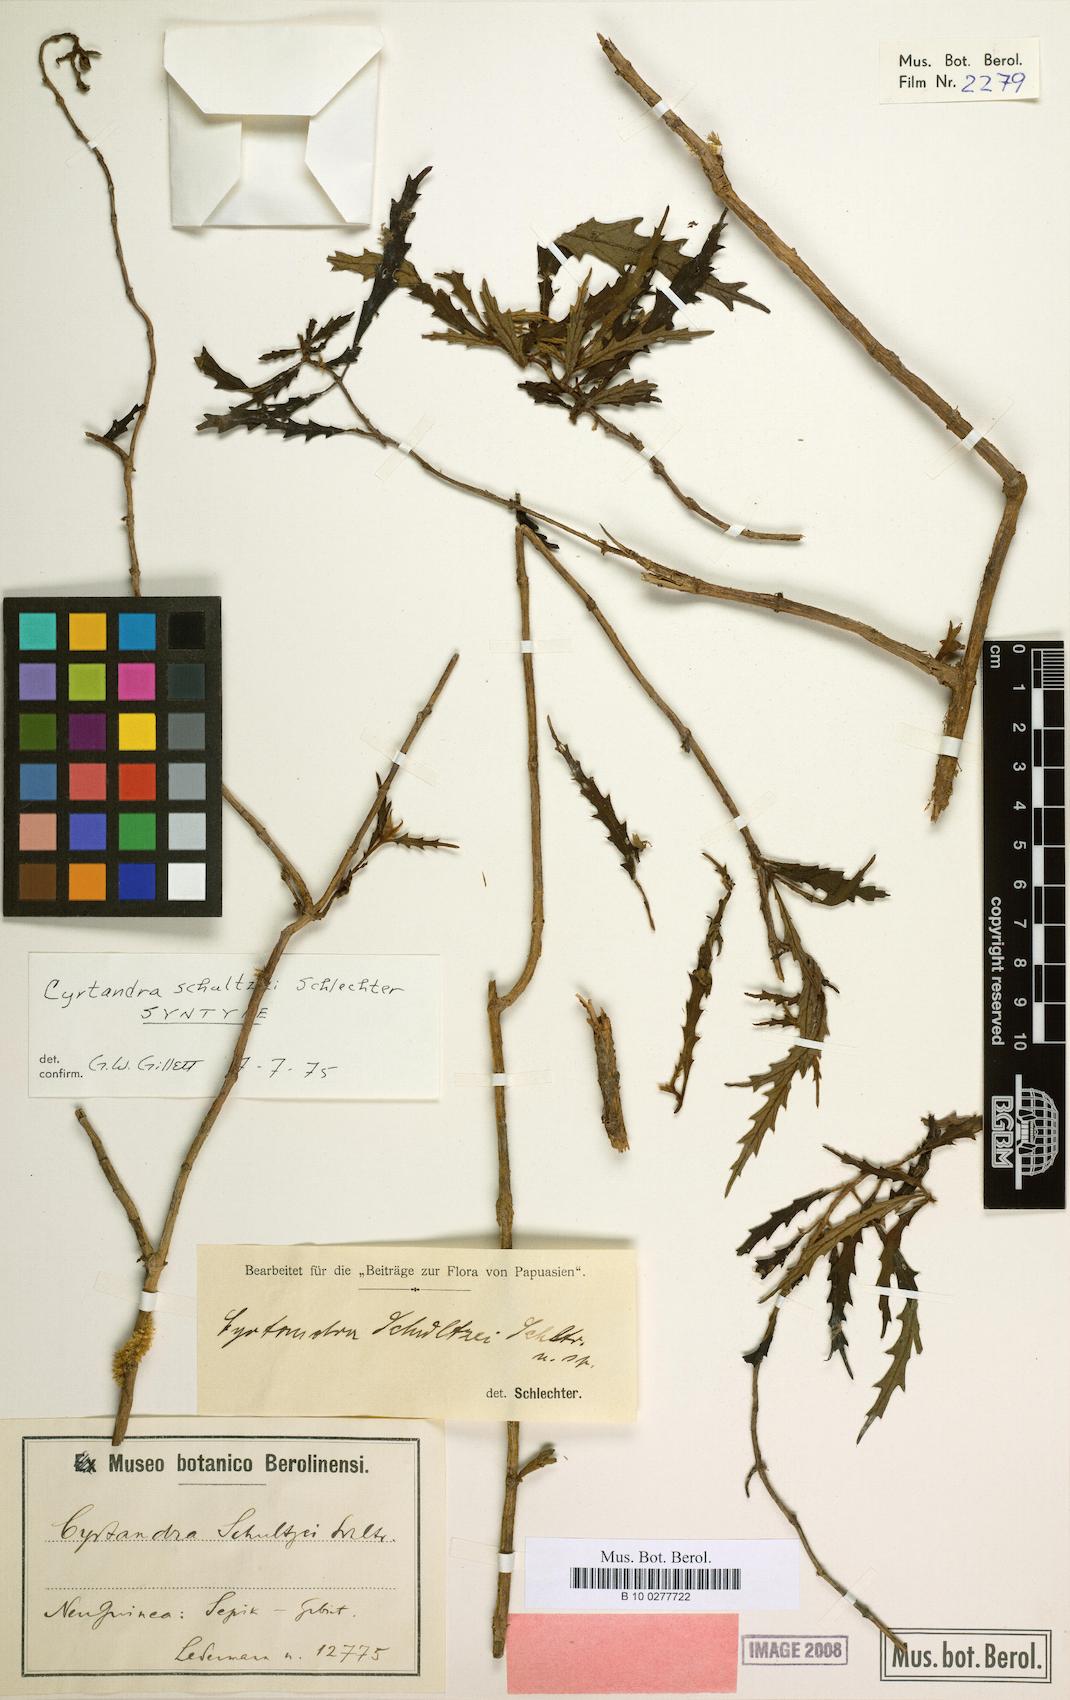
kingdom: Plantae
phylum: Tracheophyta
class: Magnoliopsida
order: Lamiales
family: Gesneriaceae
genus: Cyrtandra
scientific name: Cyrtandra schultzei
